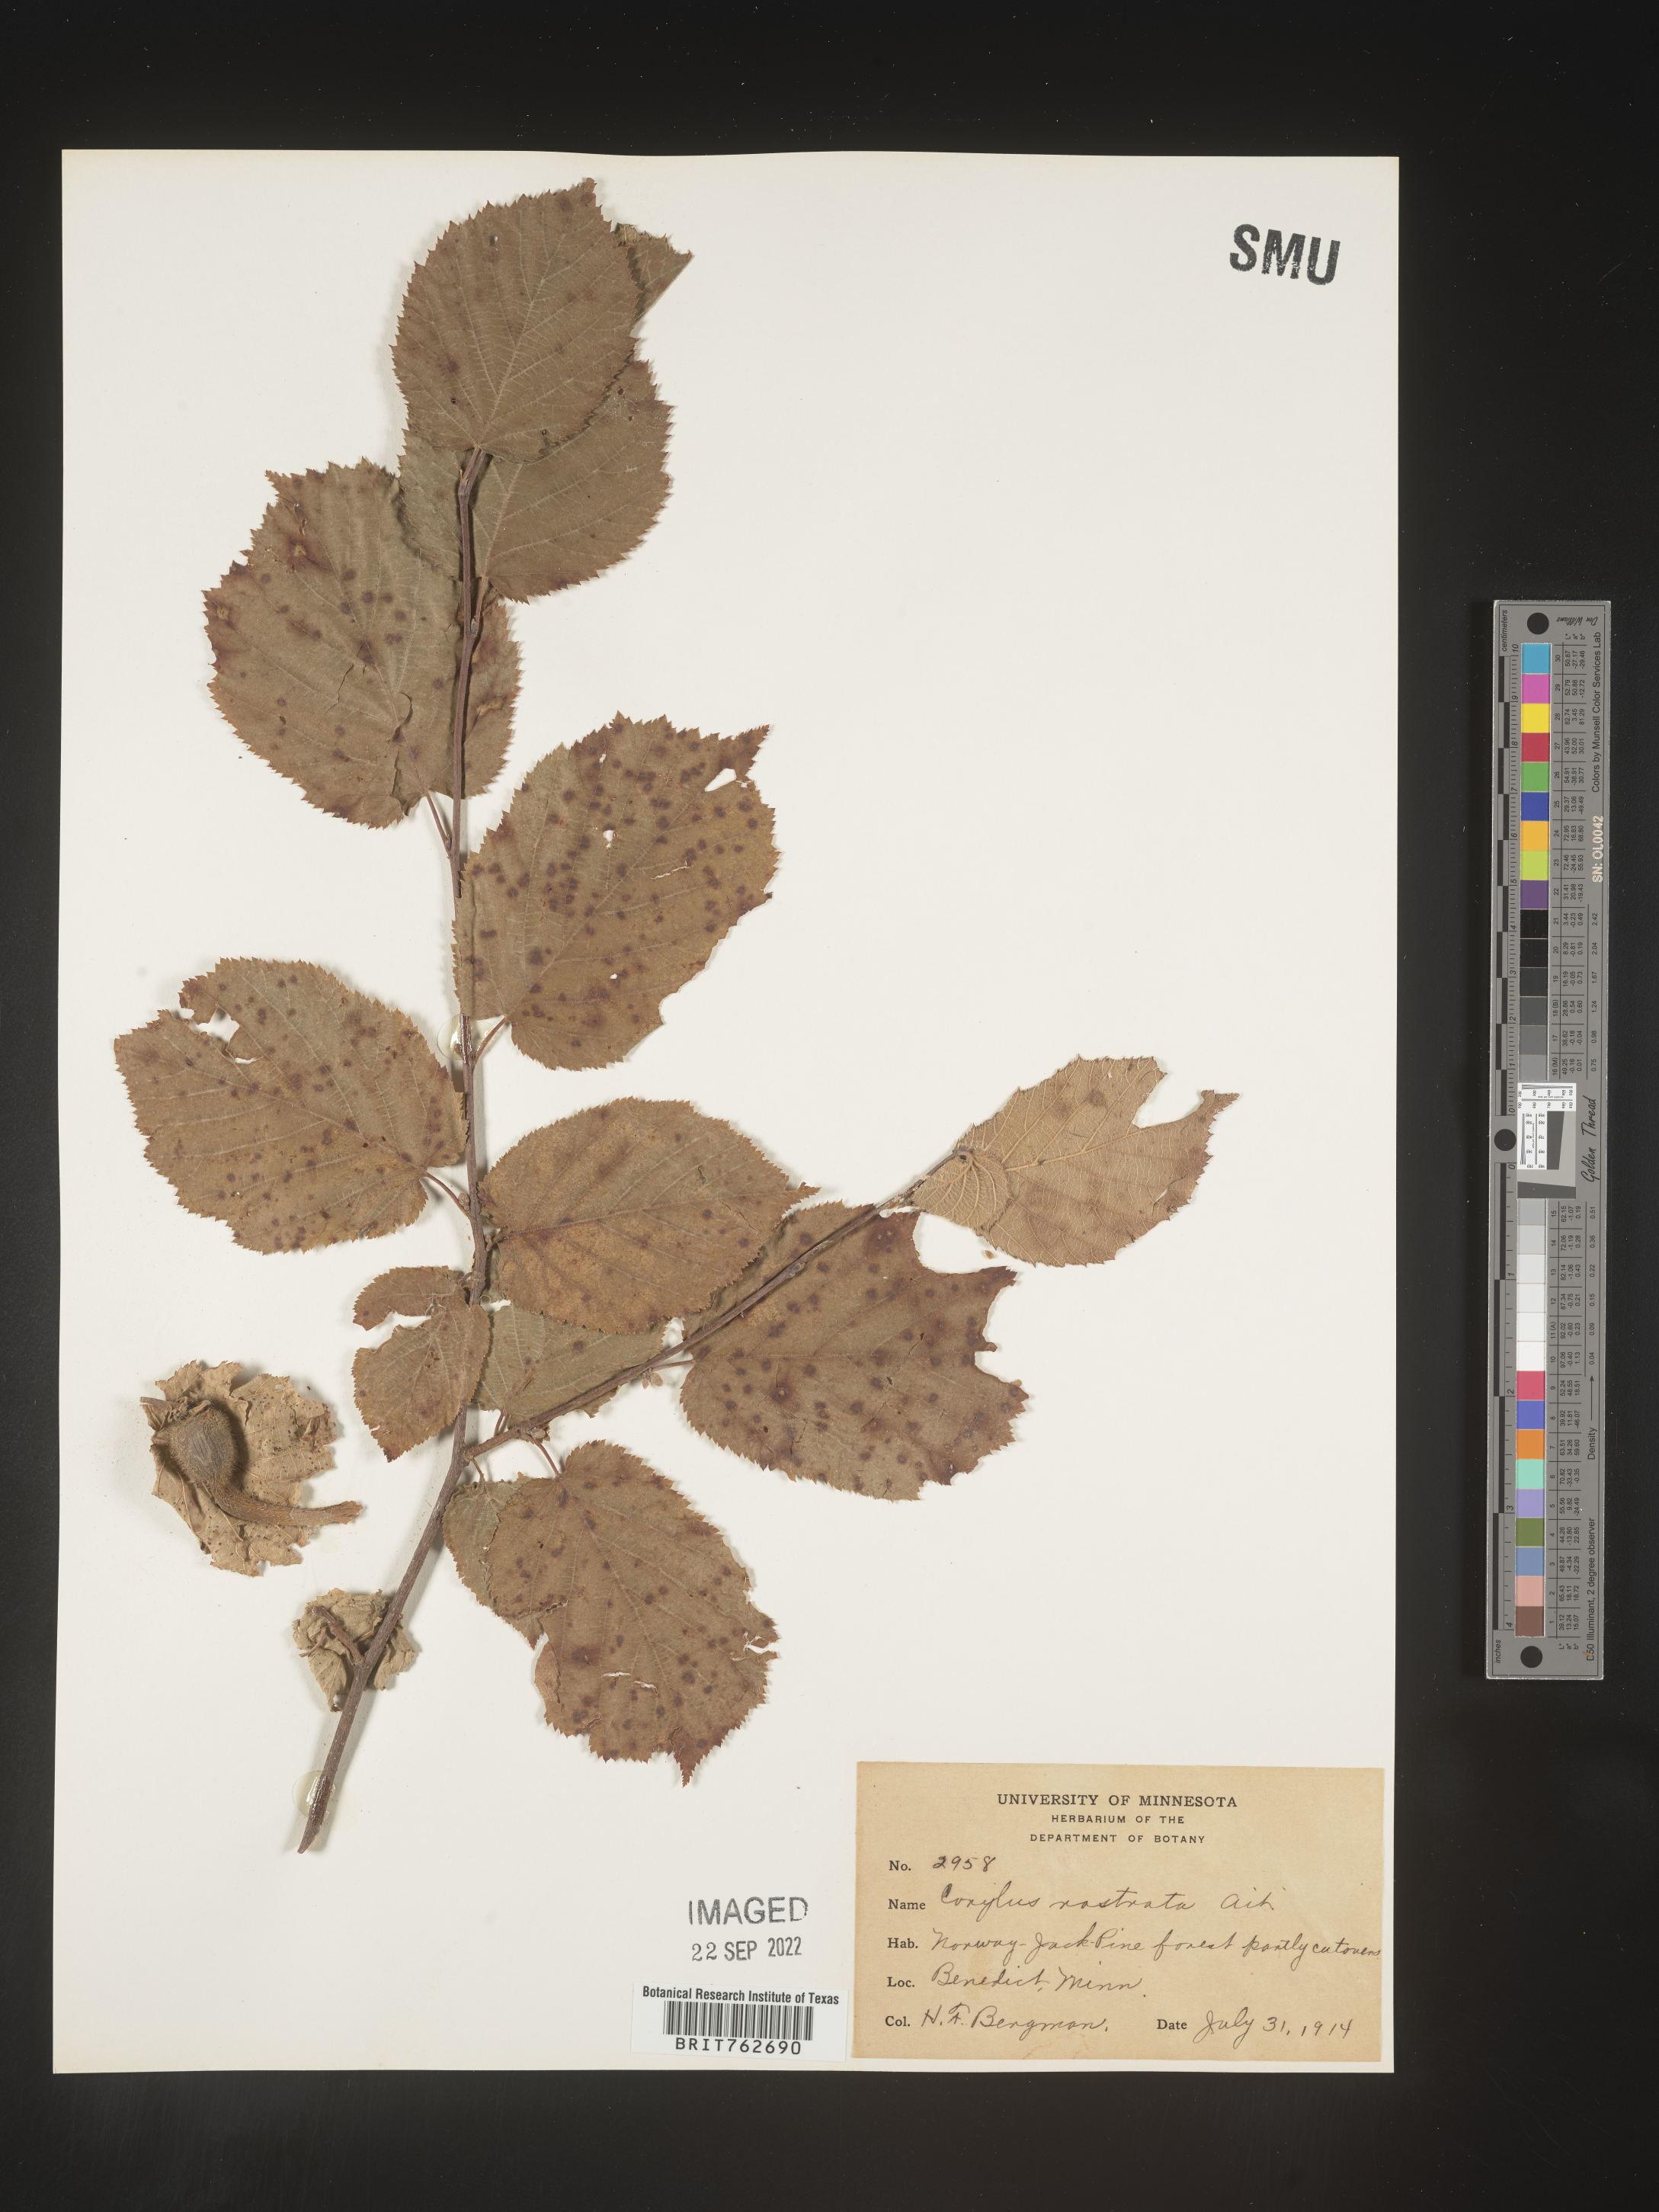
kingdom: Plantae
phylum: Tracheophyta
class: Magnoliopsida
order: Fagales
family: Betulaceae
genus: Corylus
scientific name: Corylus cornuta
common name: Beaked hazel
